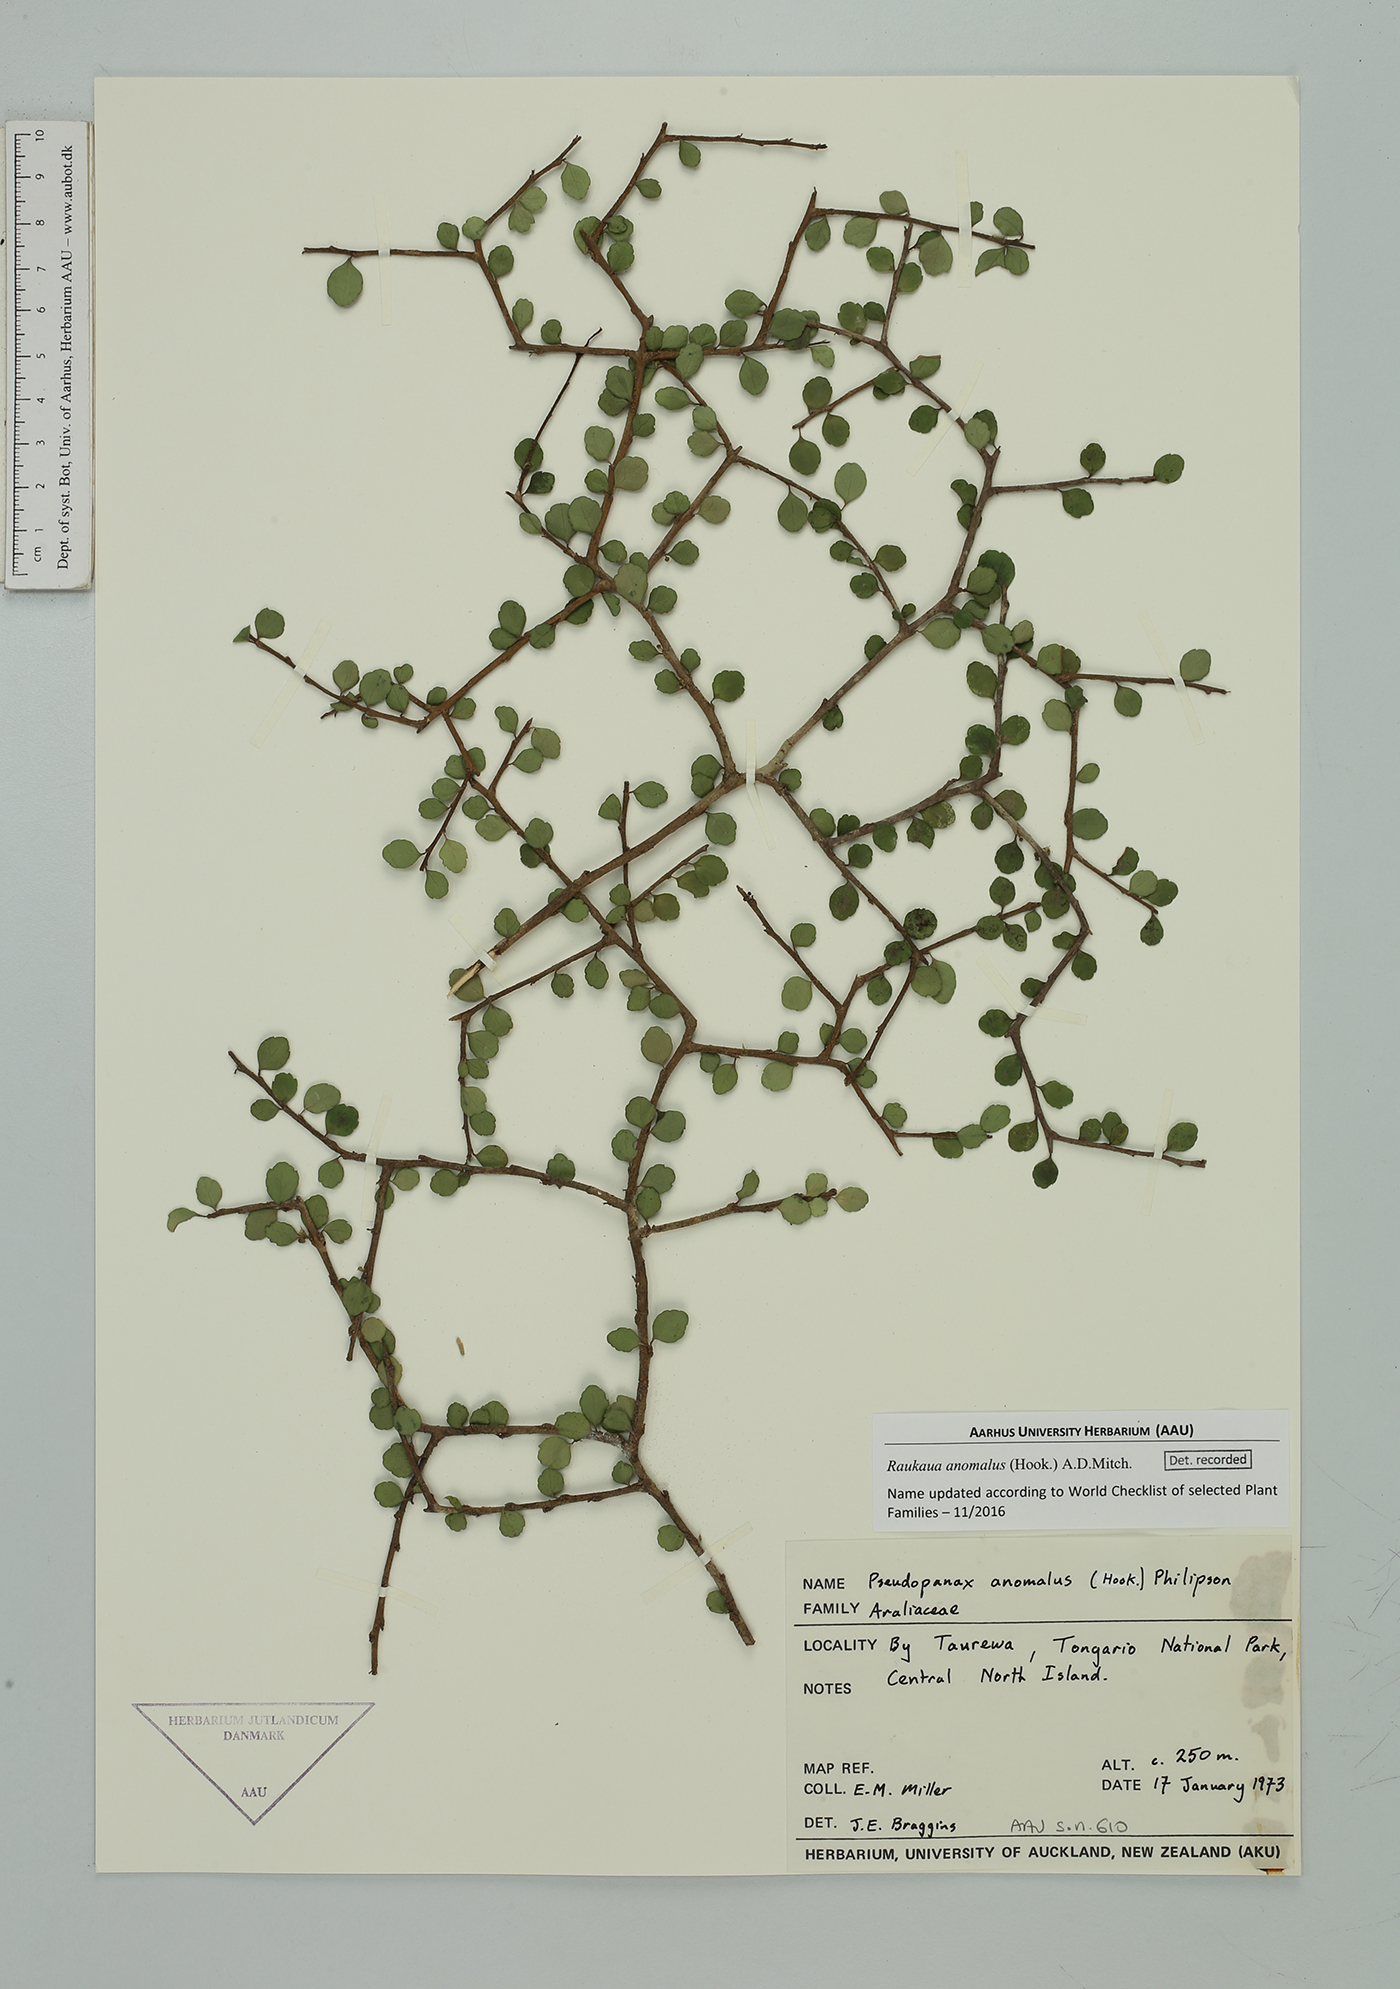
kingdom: Plantae
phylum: Tracheophyta
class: Magnoliopsida
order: Apiales
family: Araliaceae
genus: Raukaua
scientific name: Raukaua anomalus
